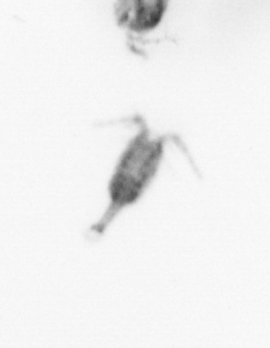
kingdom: Animalia
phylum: Arthropoda
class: Copepoda
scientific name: Copepoda
